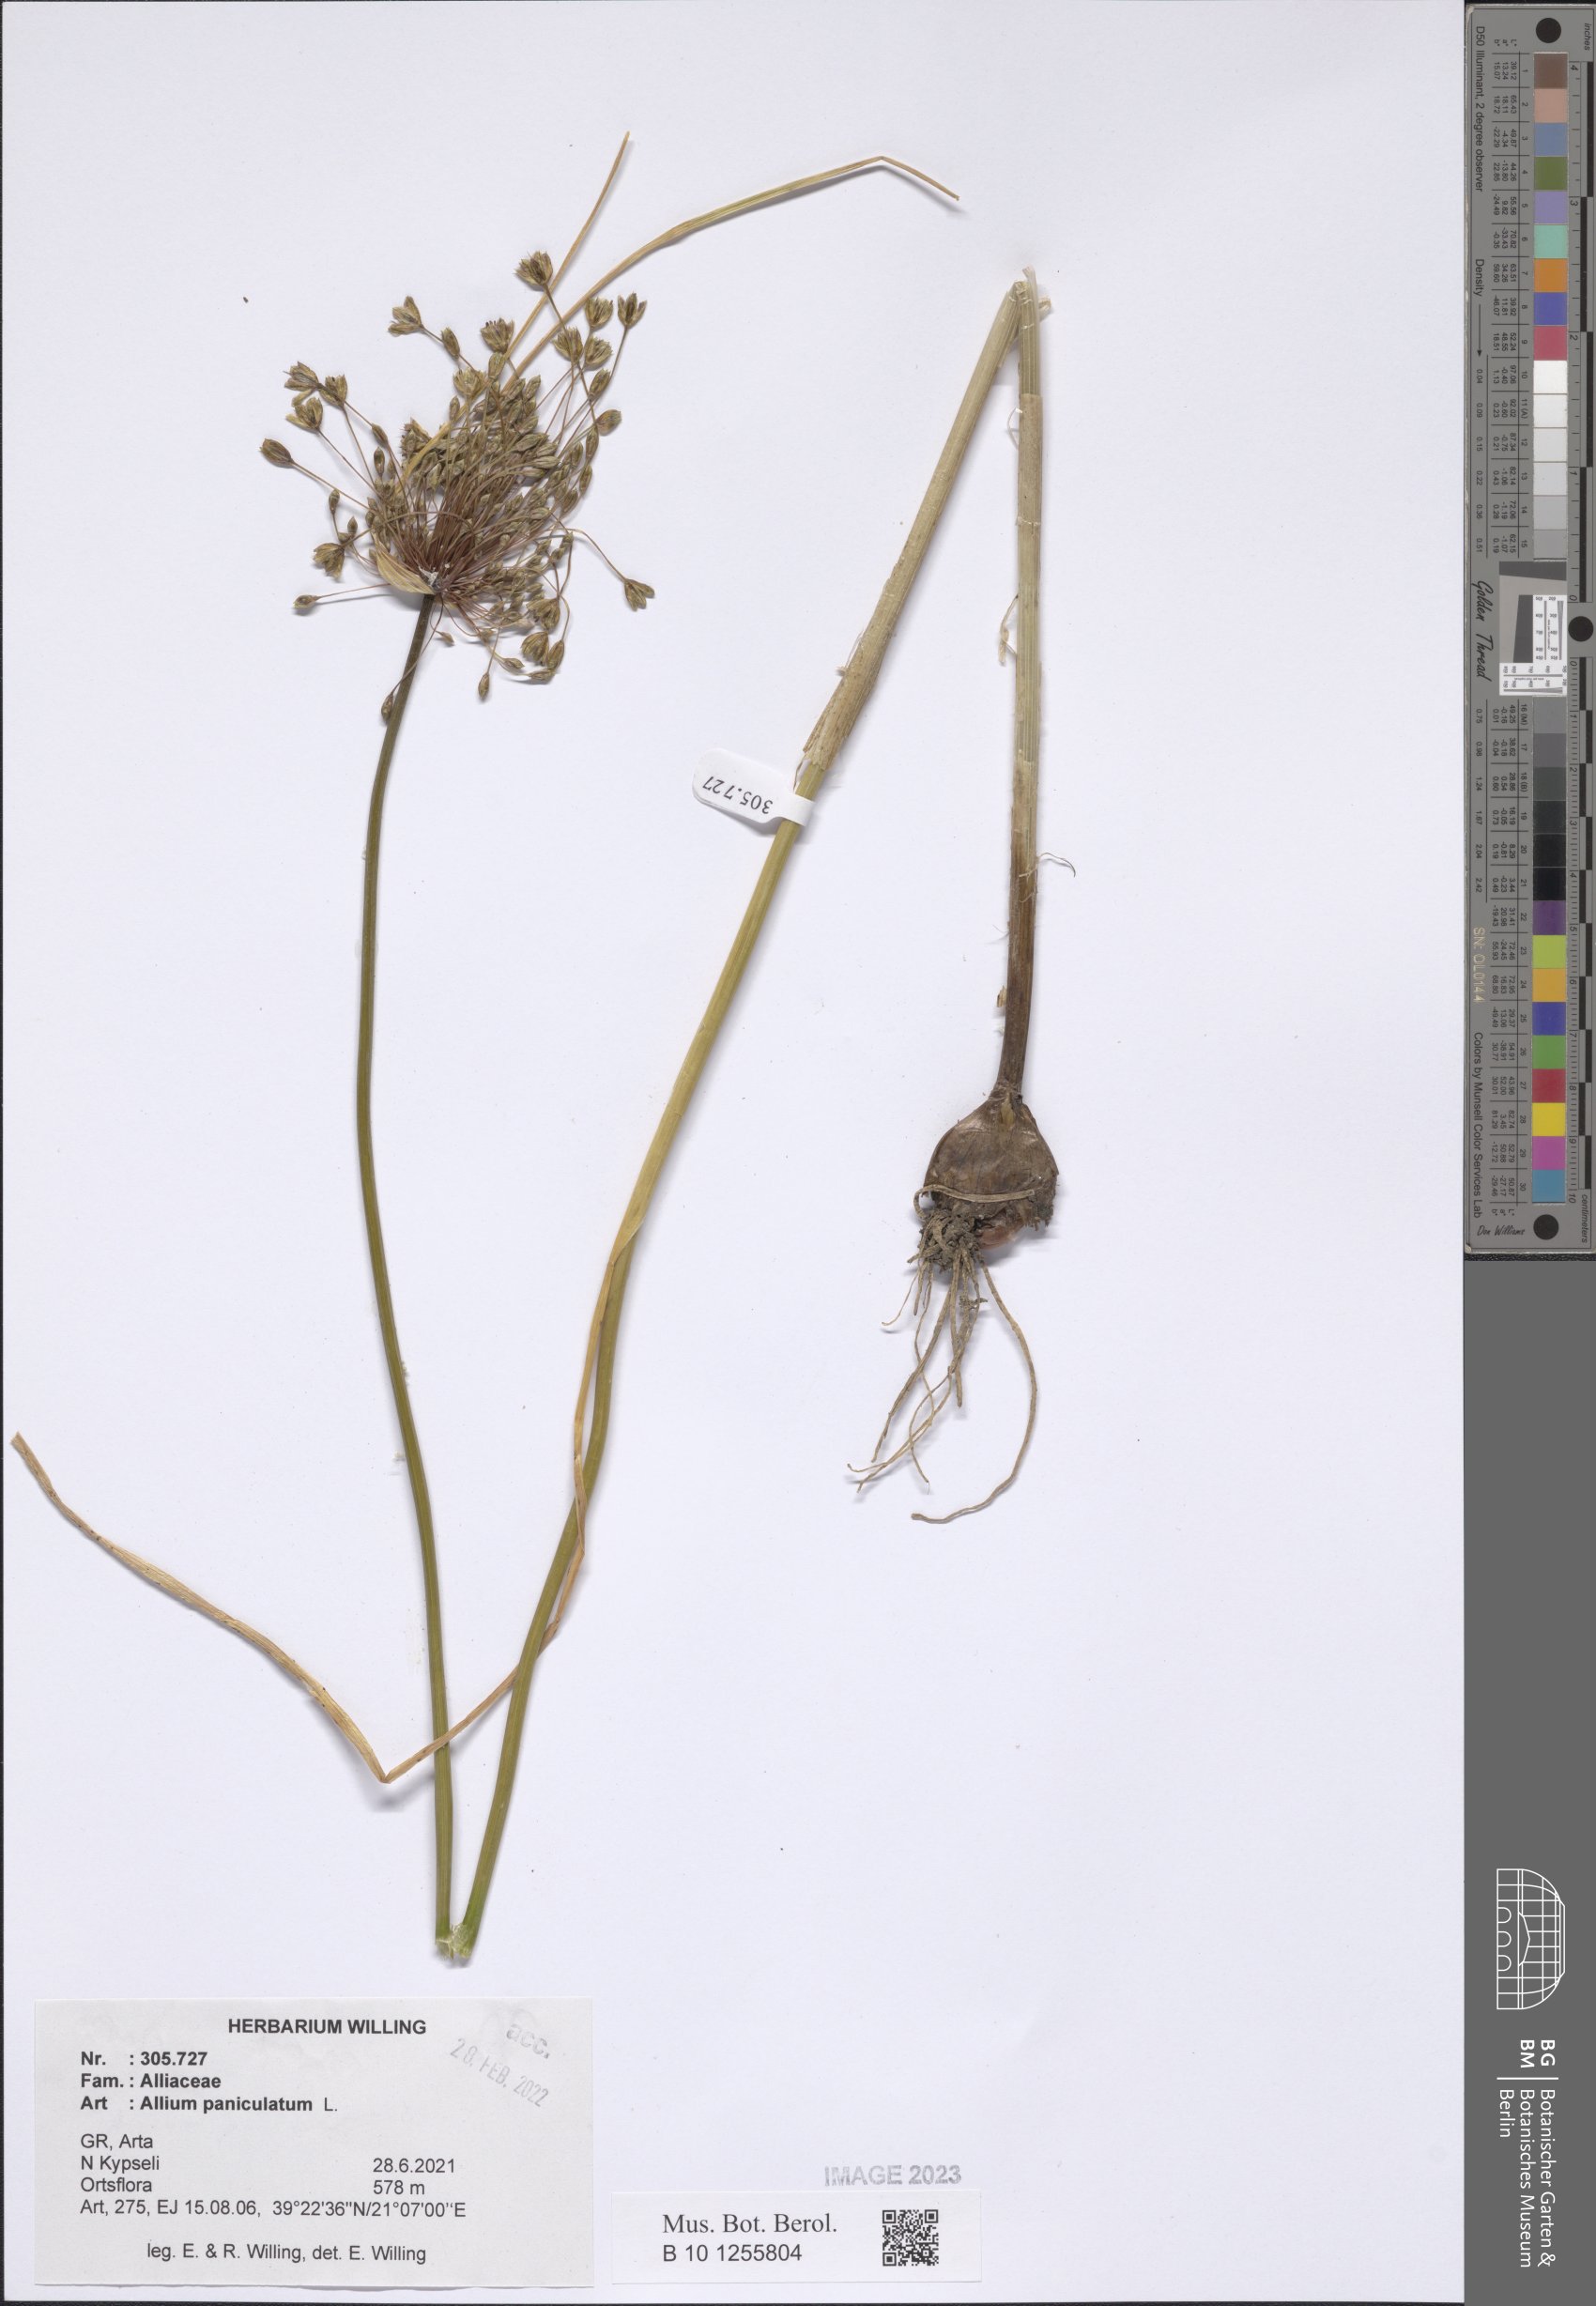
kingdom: Plantae
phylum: Tracheophyta
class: Liliopsida
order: Asparagales
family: Amaryllidaceae
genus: Allium
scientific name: Allium paniculatum
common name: Pale garlic
